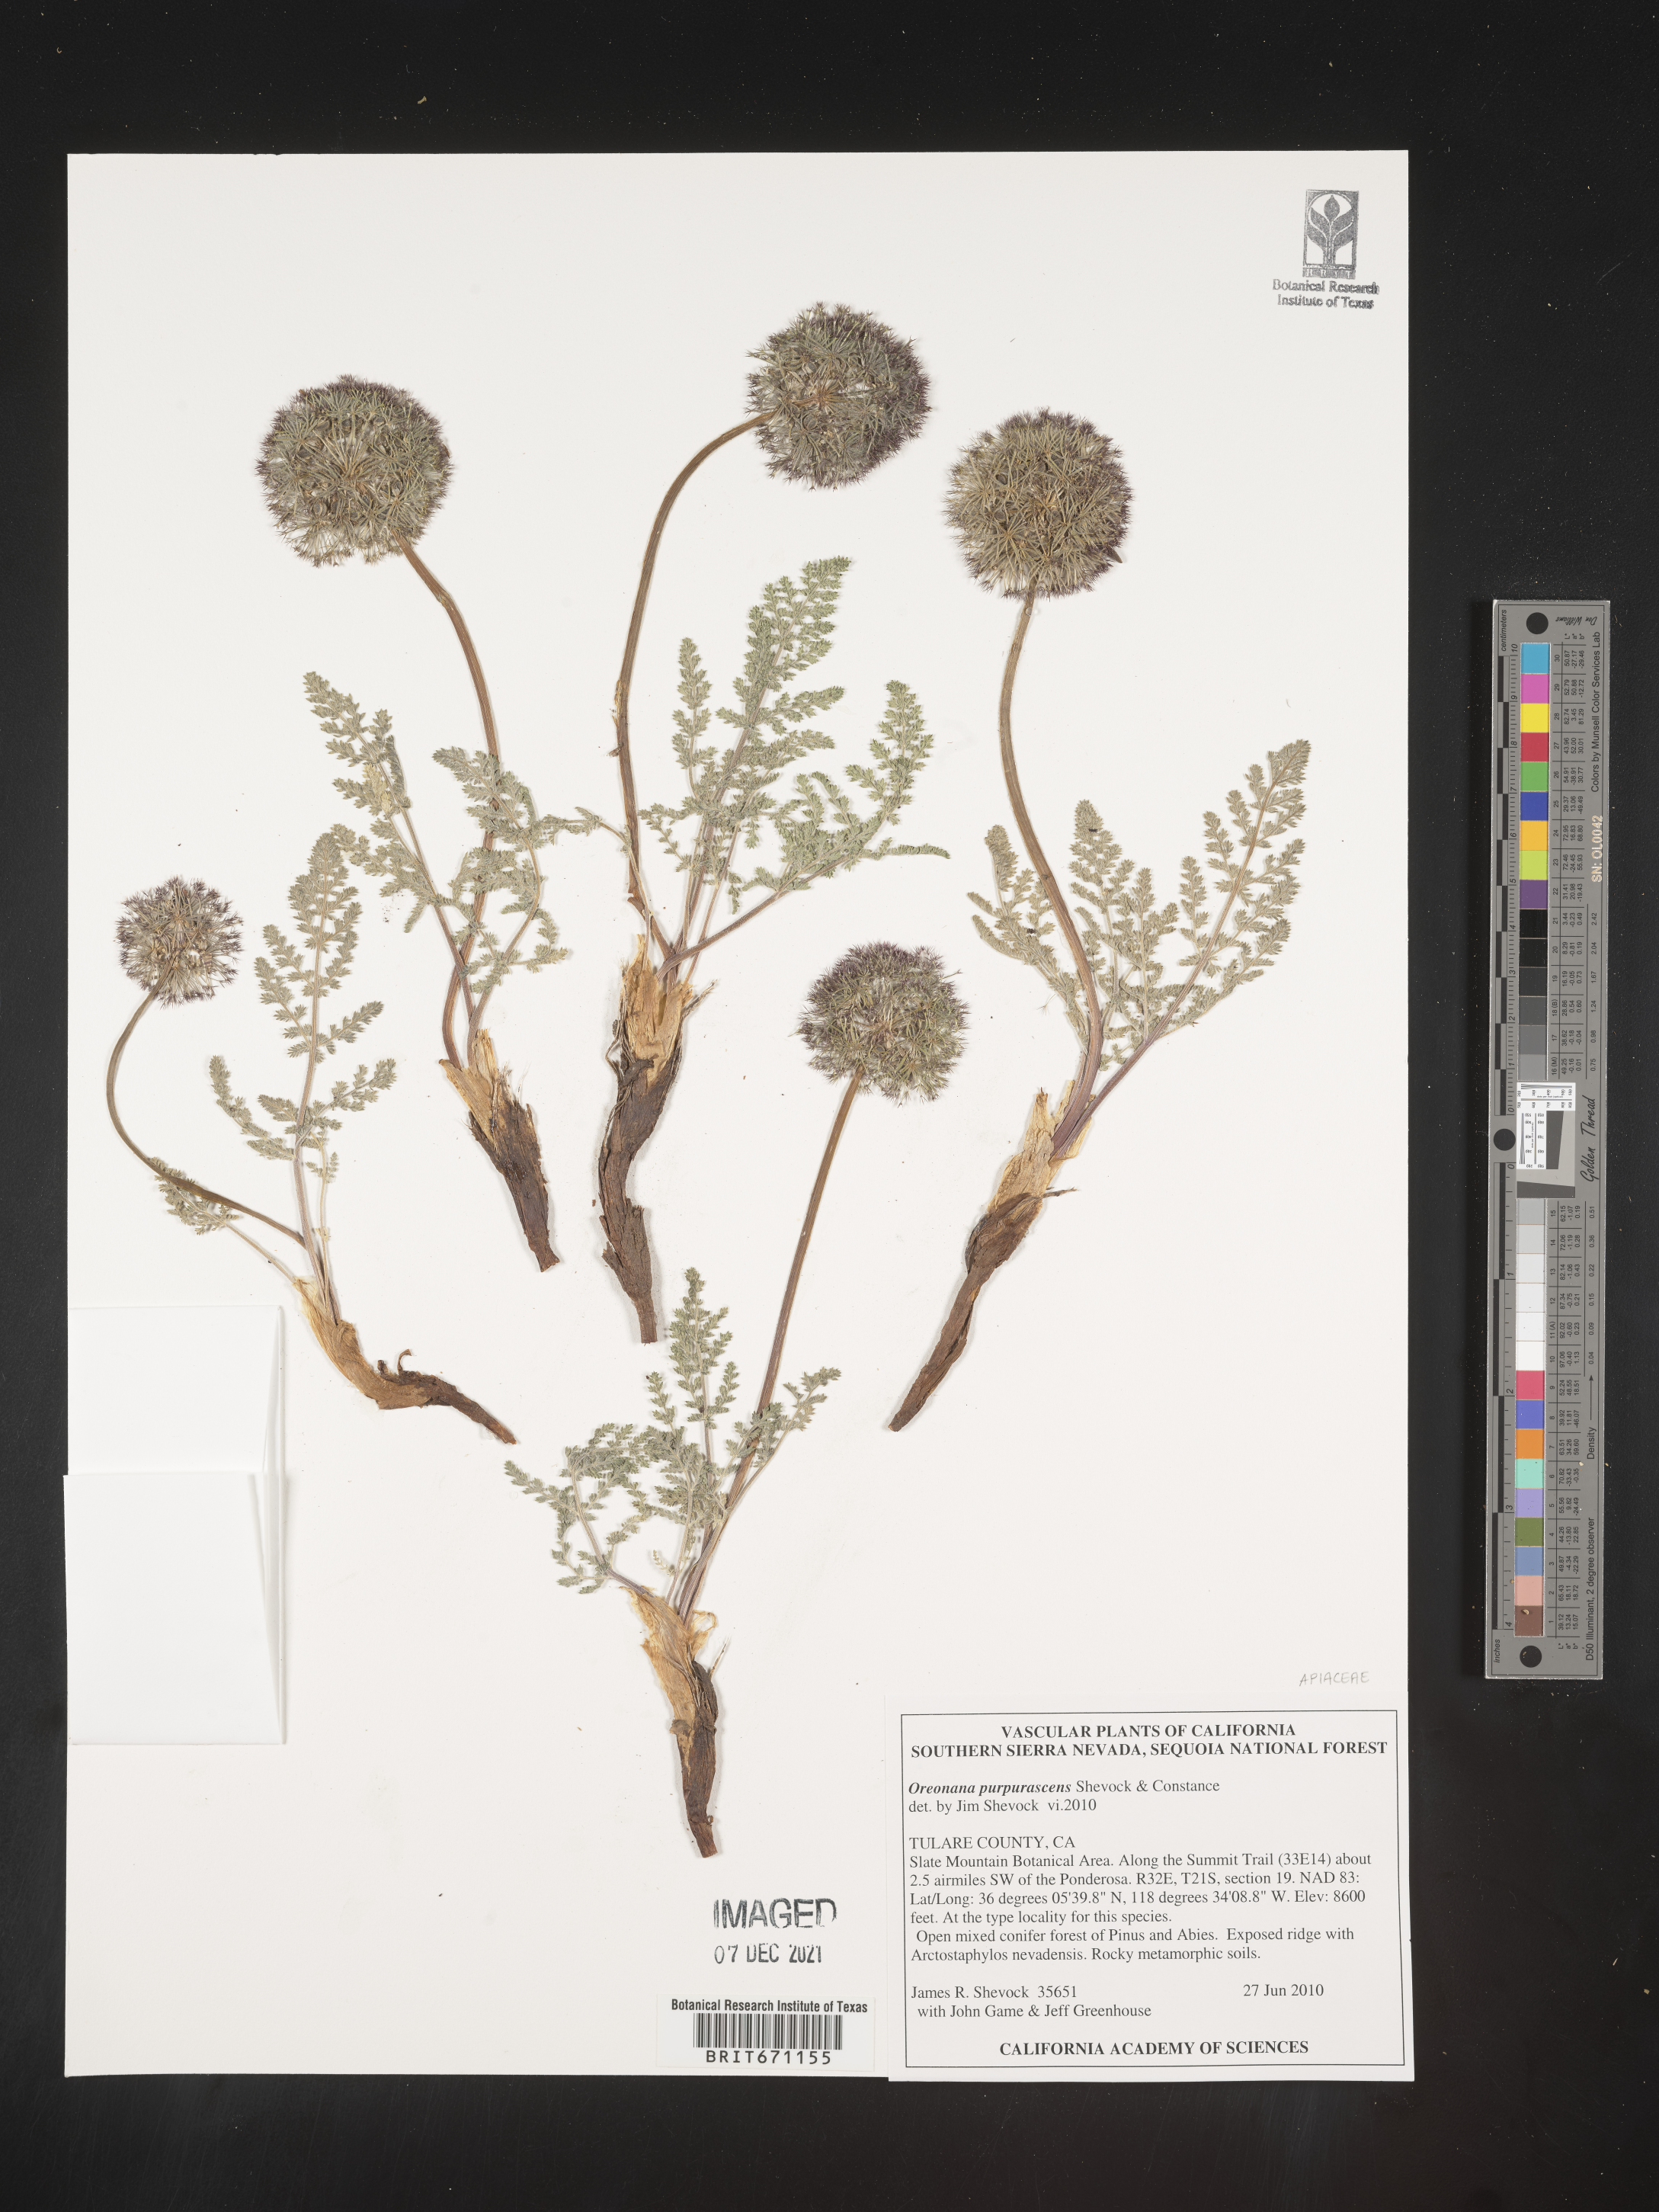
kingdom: Plantae
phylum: Tracheophyta
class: Magnoliopsida
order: Apiales
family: Apiaceae
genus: Oreonana
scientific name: Oreonana purpurascens
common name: Purple mountain-parsley
